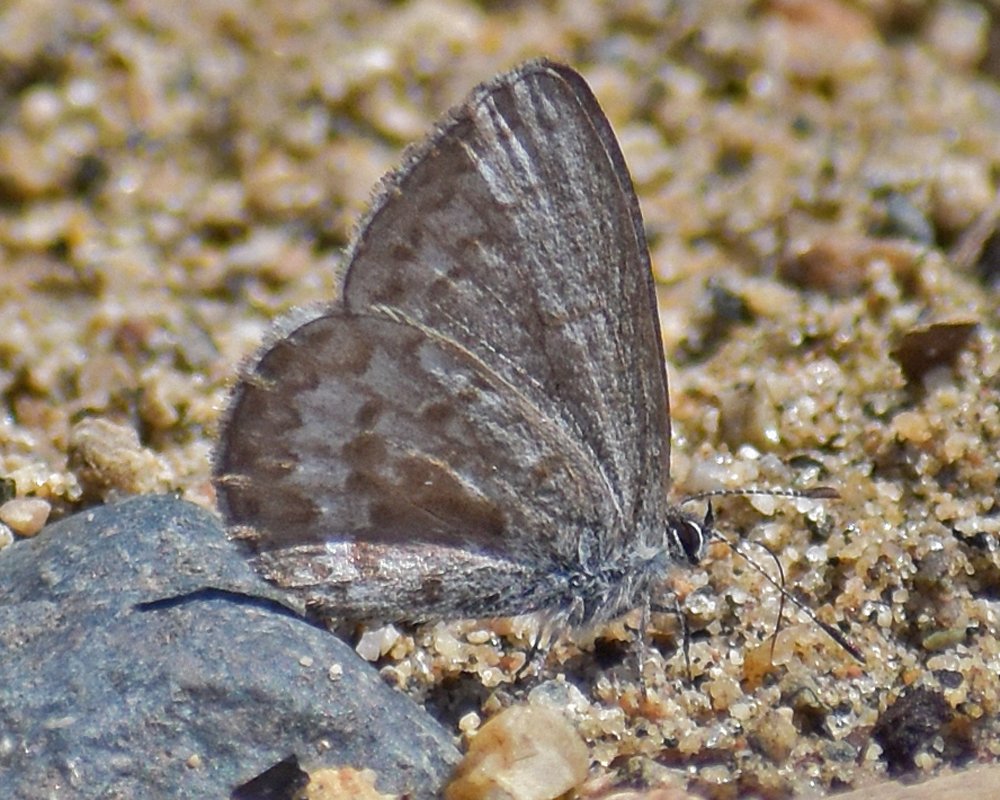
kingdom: Animalia
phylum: Arthropoda
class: Insecta
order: Lepidoptera
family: Lycaenidae
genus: Celastrina
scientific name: Celastrina ladon
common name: Echo Azure
